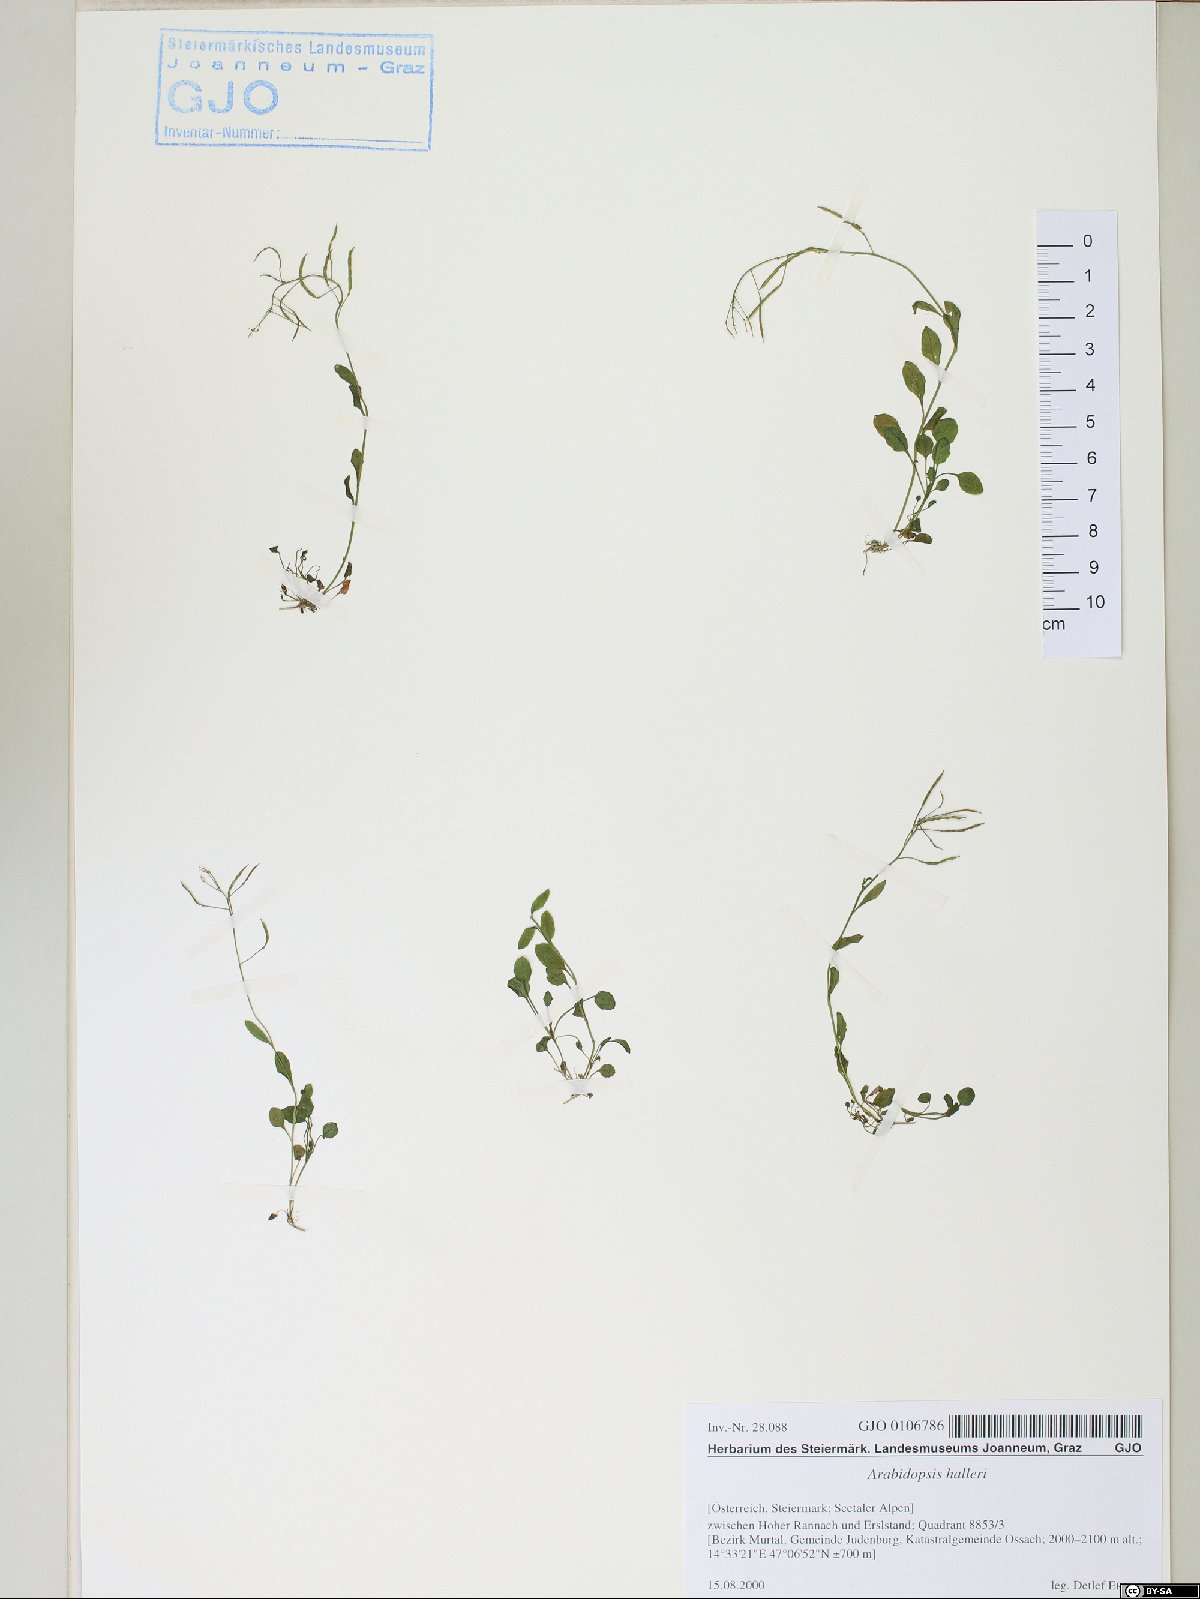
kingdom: Plantae
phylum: Tracheophyta
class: Magnoliopsida
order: Brassicales
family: Brassicaceae
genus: Arabidopsis
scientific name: Arabidopsis halleri
